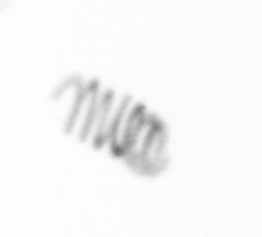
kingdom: Chromista
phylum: Ochrophyta
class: Bacillariophyceae
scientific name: Bacillariophyceae
